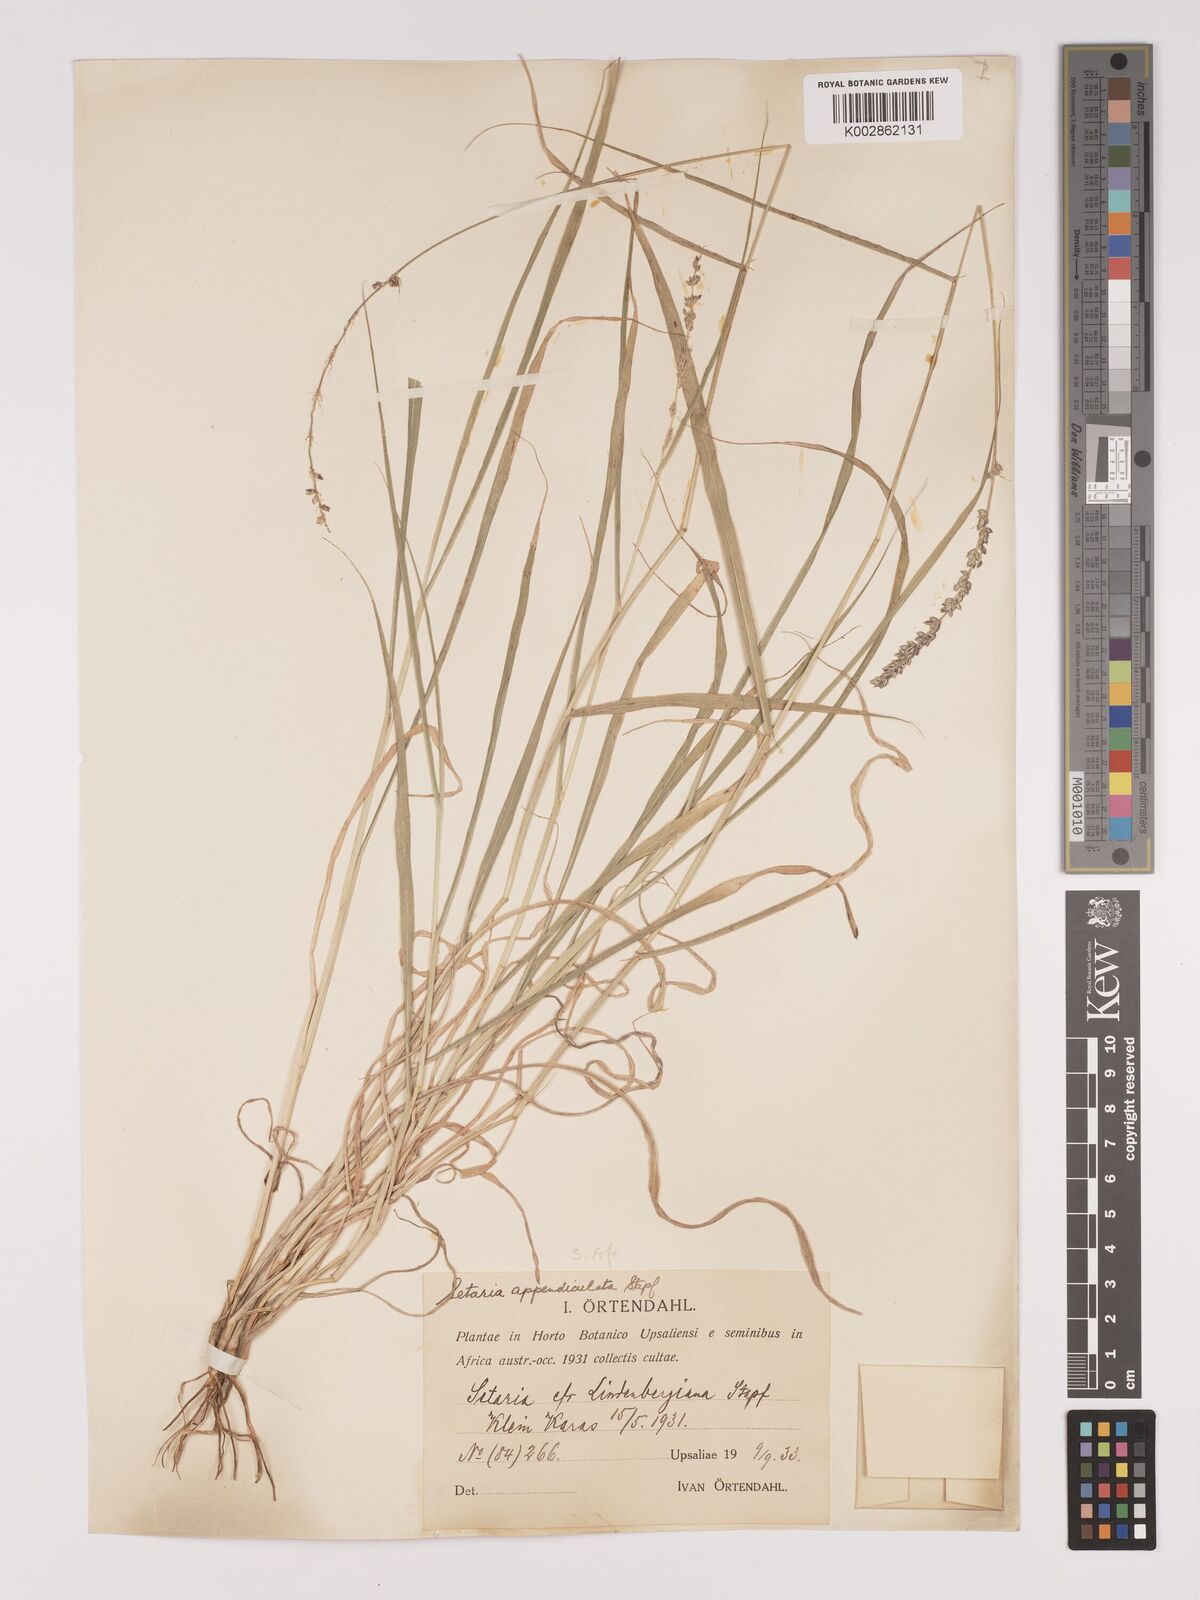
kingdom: Plantae
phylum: Tracheophyta
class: Liliopsida
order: Poales
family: Poaceae
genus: Setaria
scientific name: Setaria appendiculata
